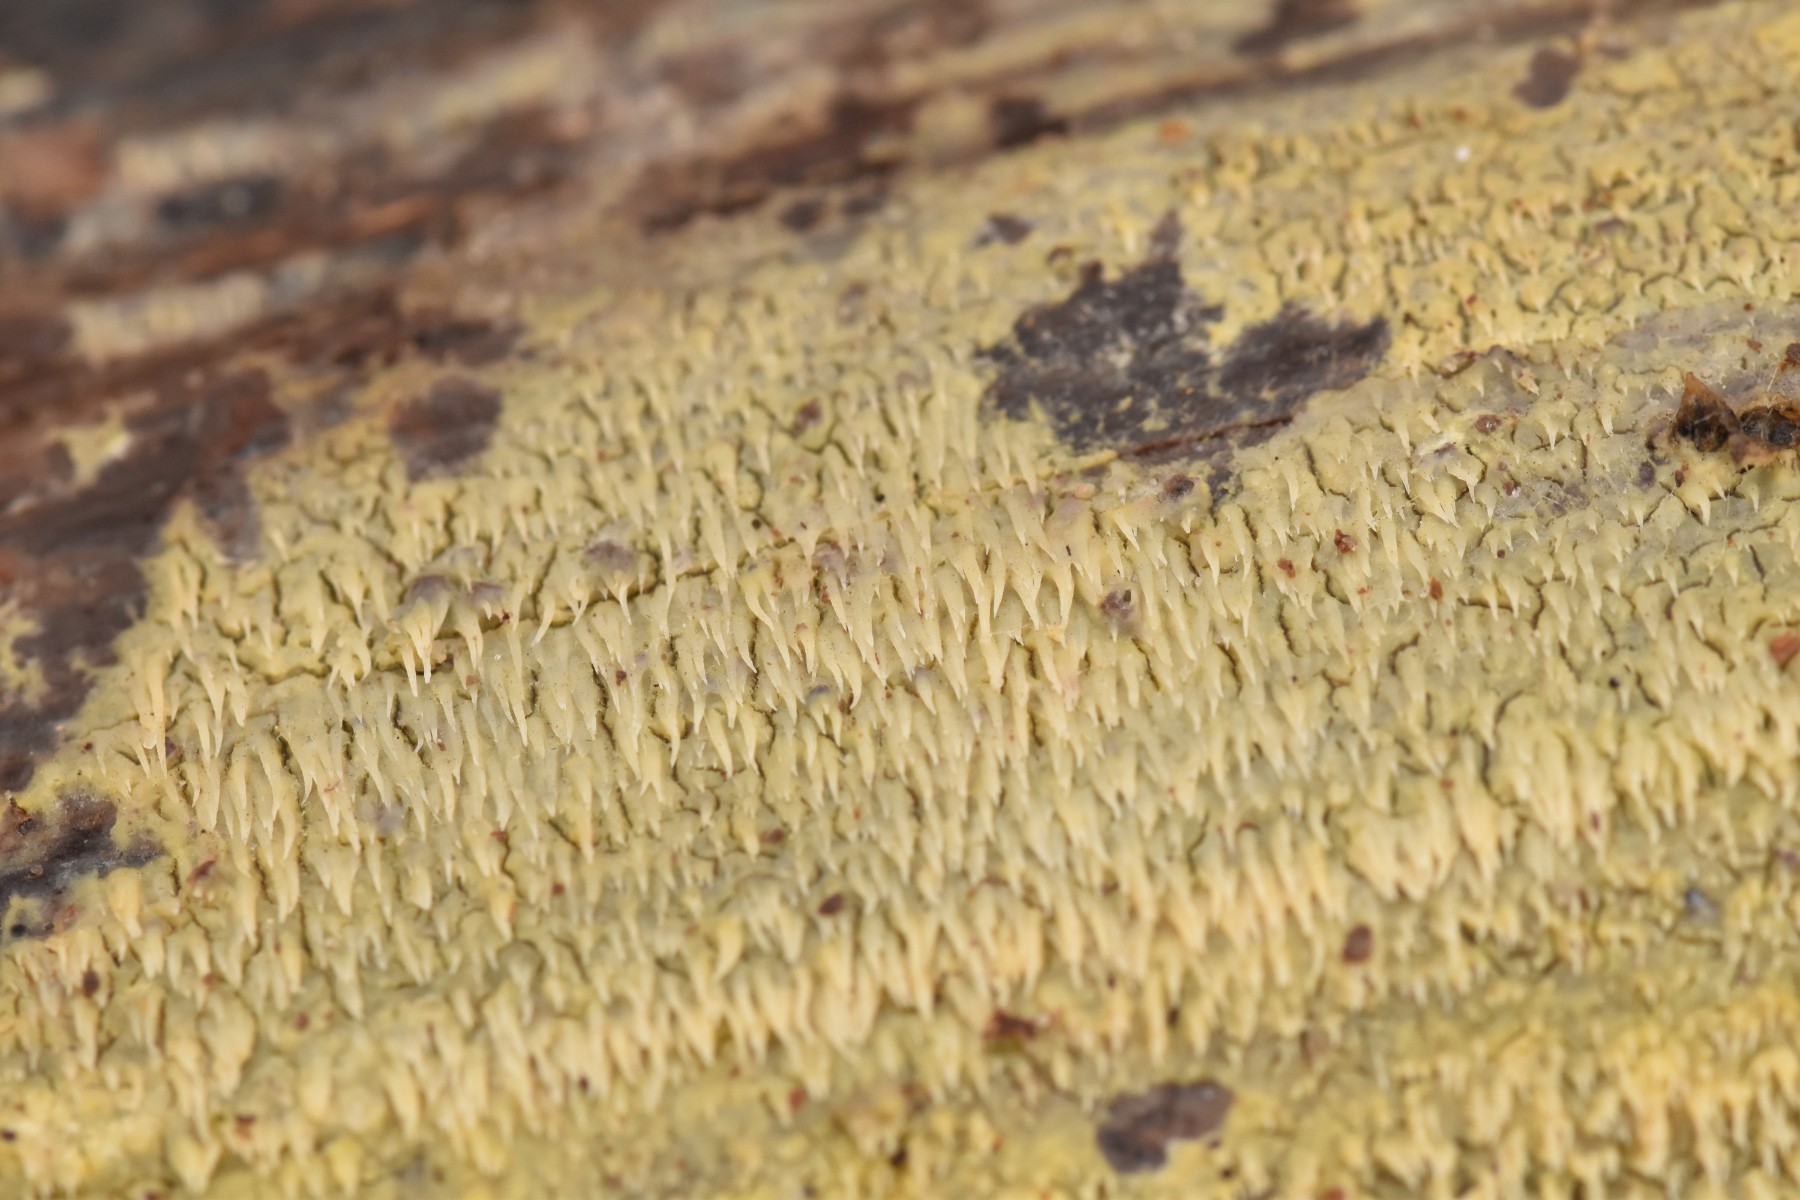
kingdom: Fungi
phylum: Basidiomycota
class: Agaricomycetes
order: Polyporales
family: Meruliaceae
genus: Mycoacia
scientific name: Mycoacia uda
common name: citrongul vokspig
